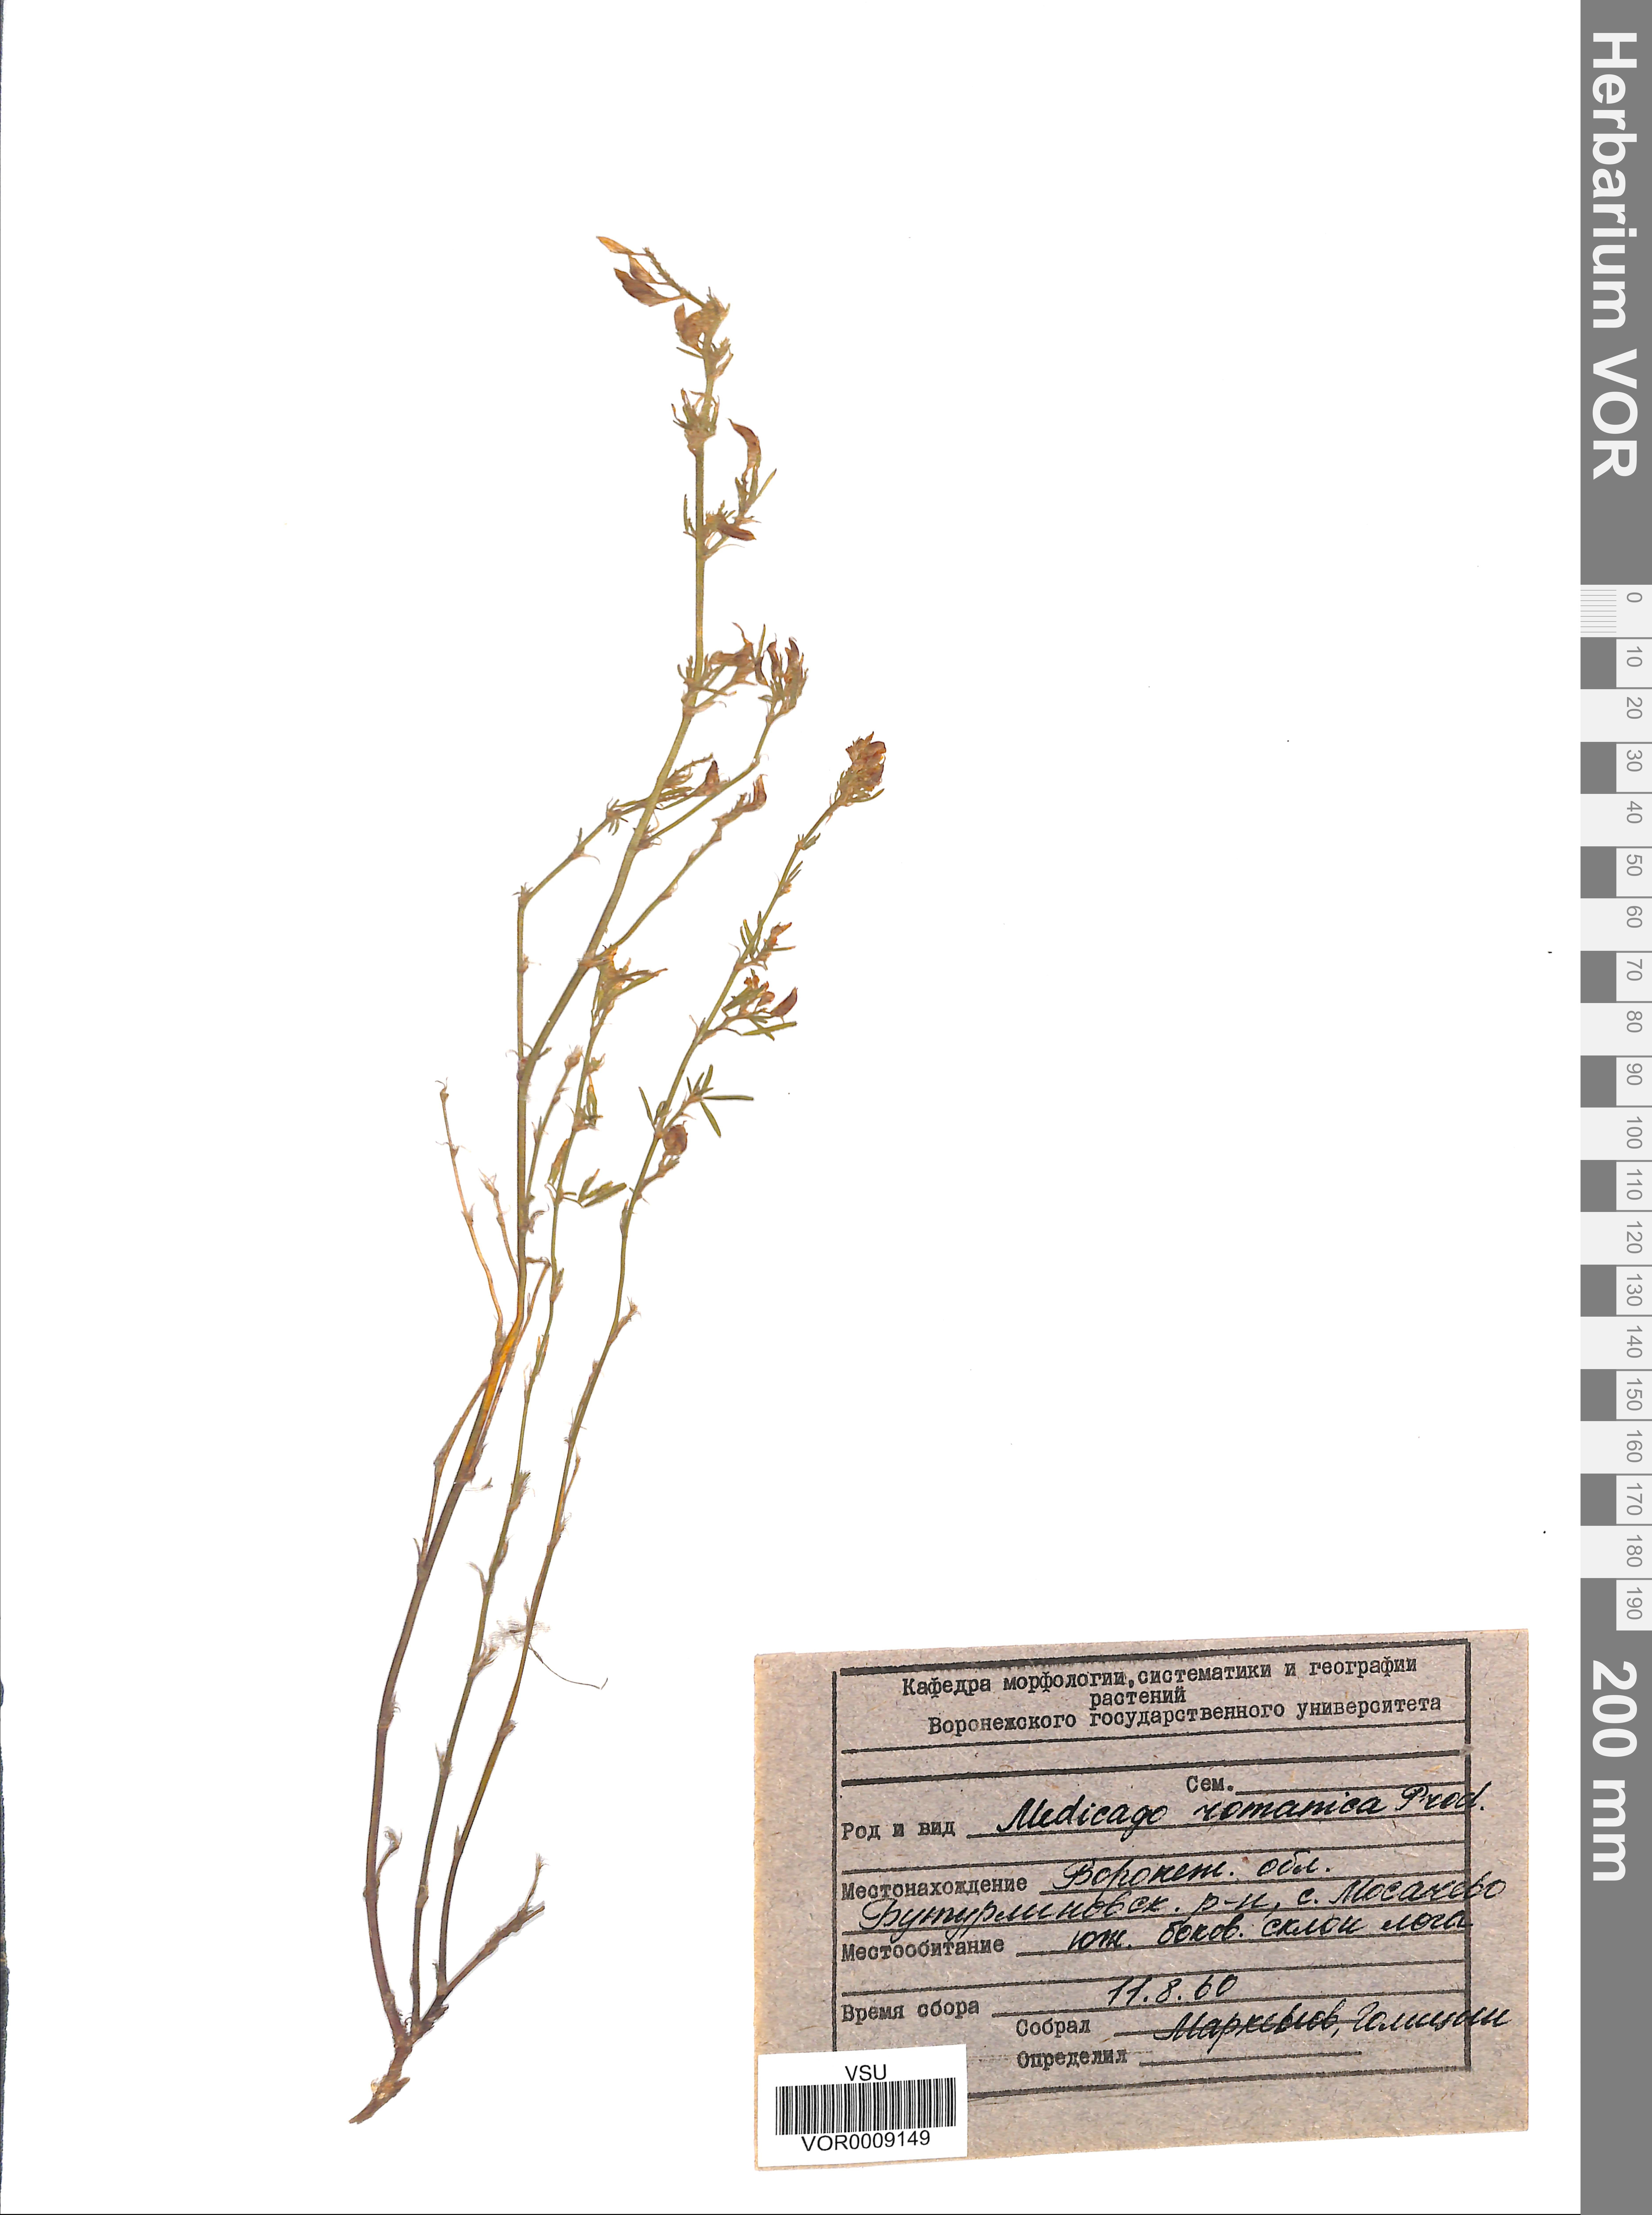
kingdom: Plantae
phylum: Tracheophyta
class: Magnoliopsida
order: Fabales
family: Fabaceae
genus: Medicago
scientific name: Medicago falcata
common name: Sickle medick
